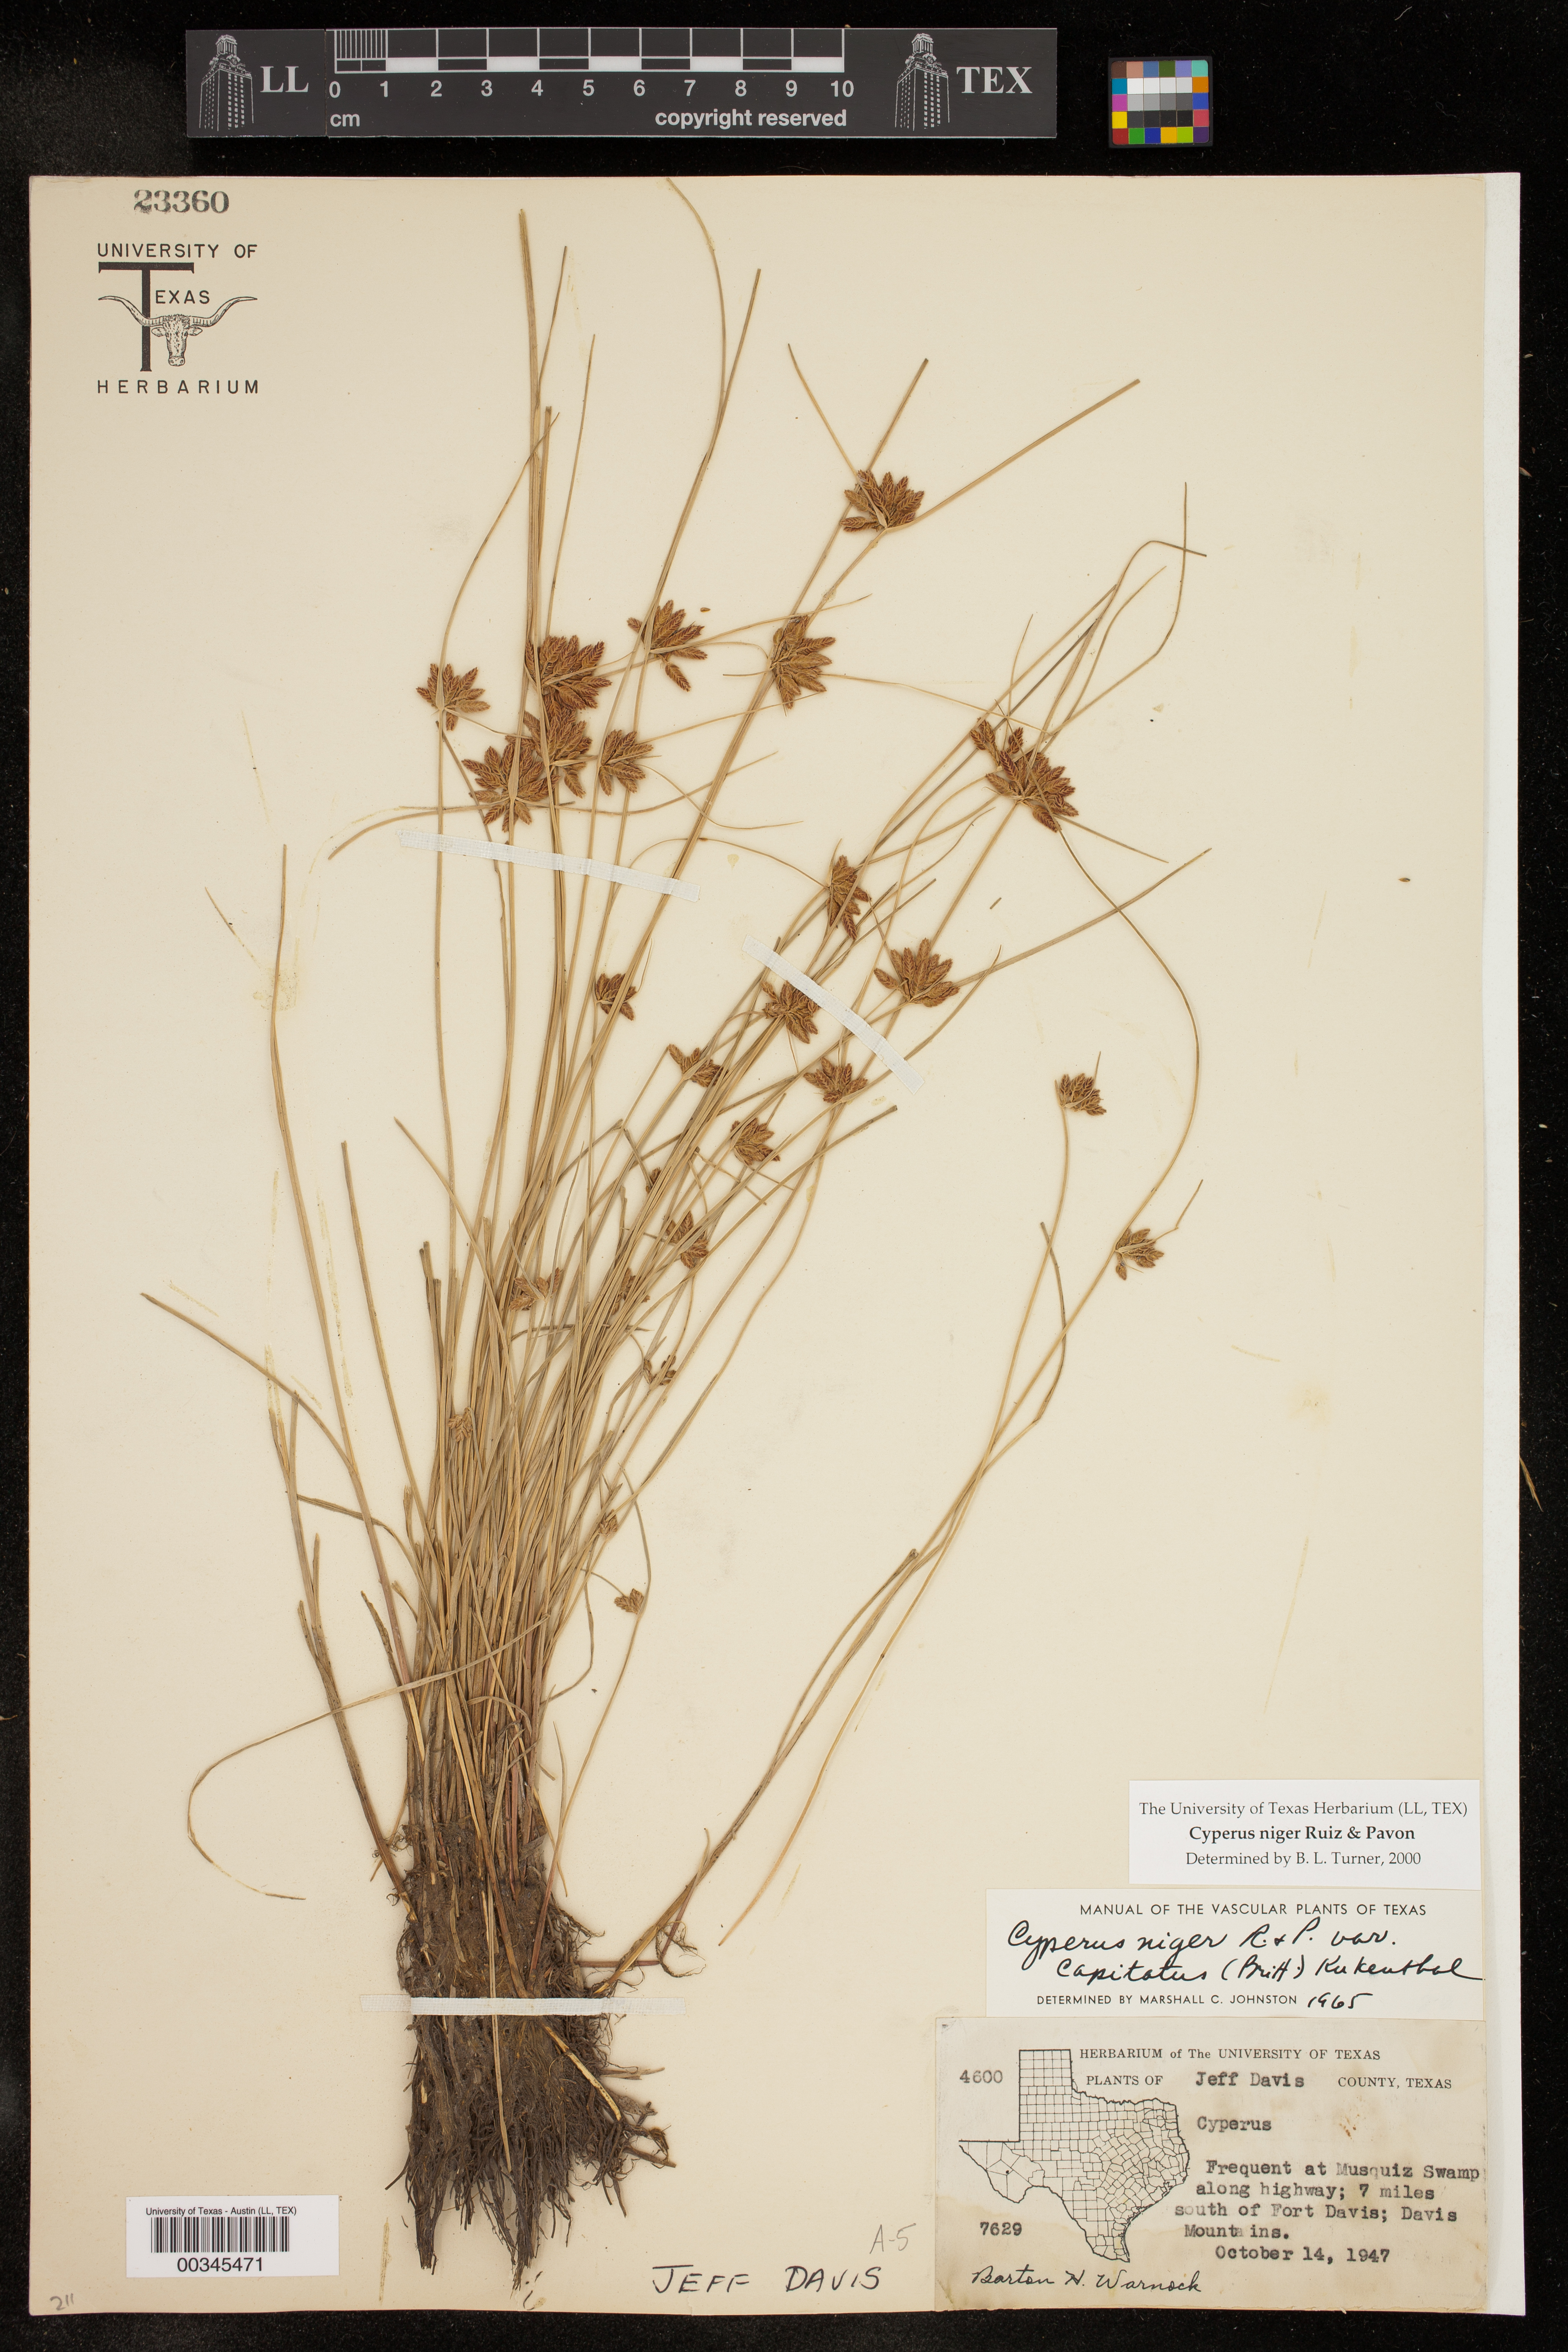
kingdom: Plantae
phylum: Tracheophyta
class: Liliopsida
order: Poales
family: Cyperaceae
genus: Cyperus
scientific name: Cyperus melanostachyus
